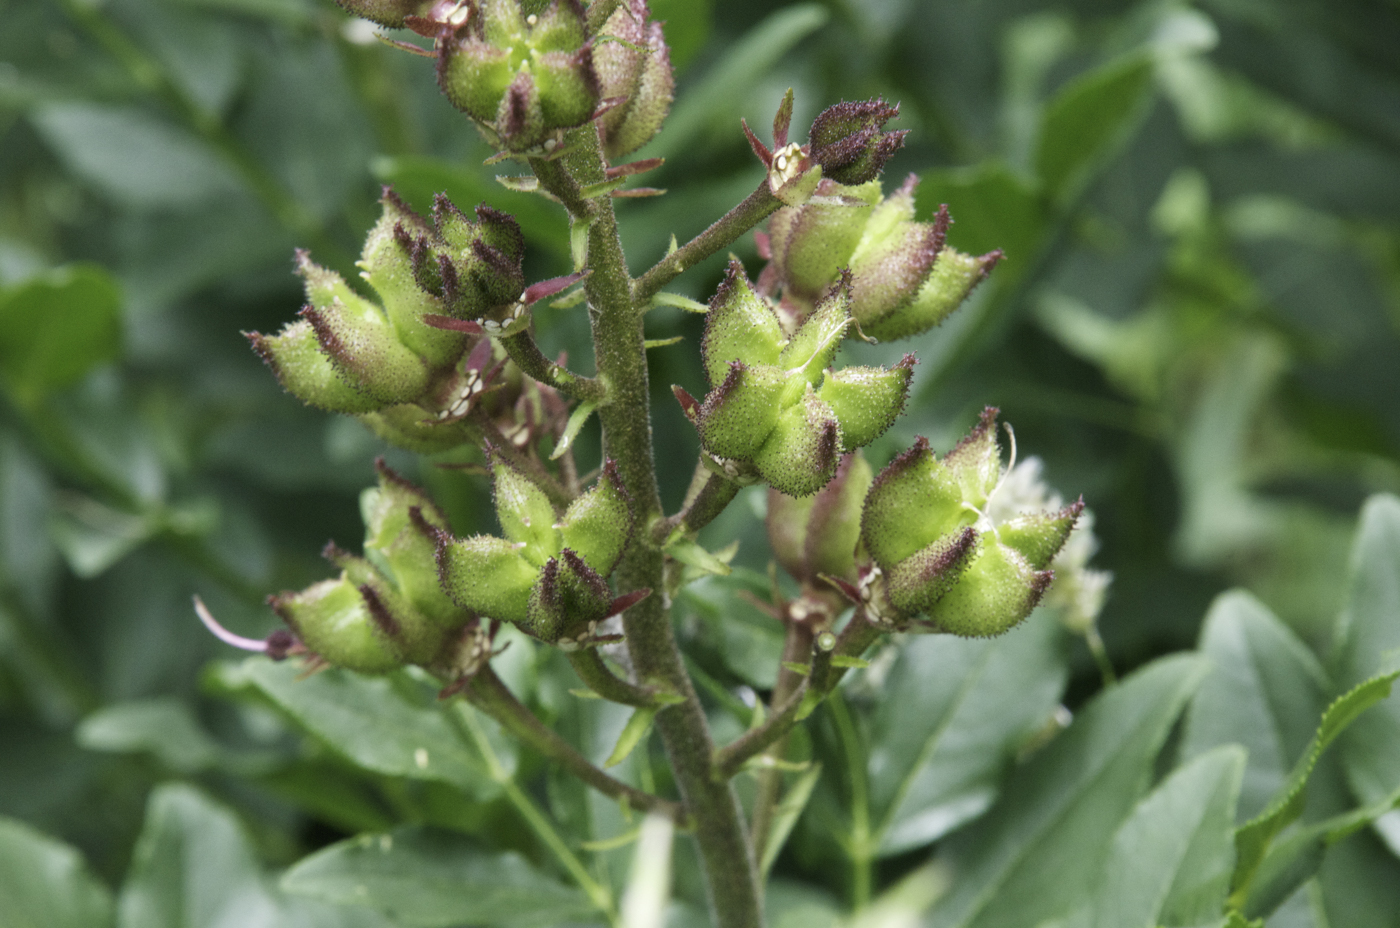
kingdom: Plantae
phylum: Tracheophyta
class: Magnoliopsida
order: Sapindales
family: Rutaceae
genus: Dictamnus
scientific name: Dictamnus albus
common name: Gasplant
